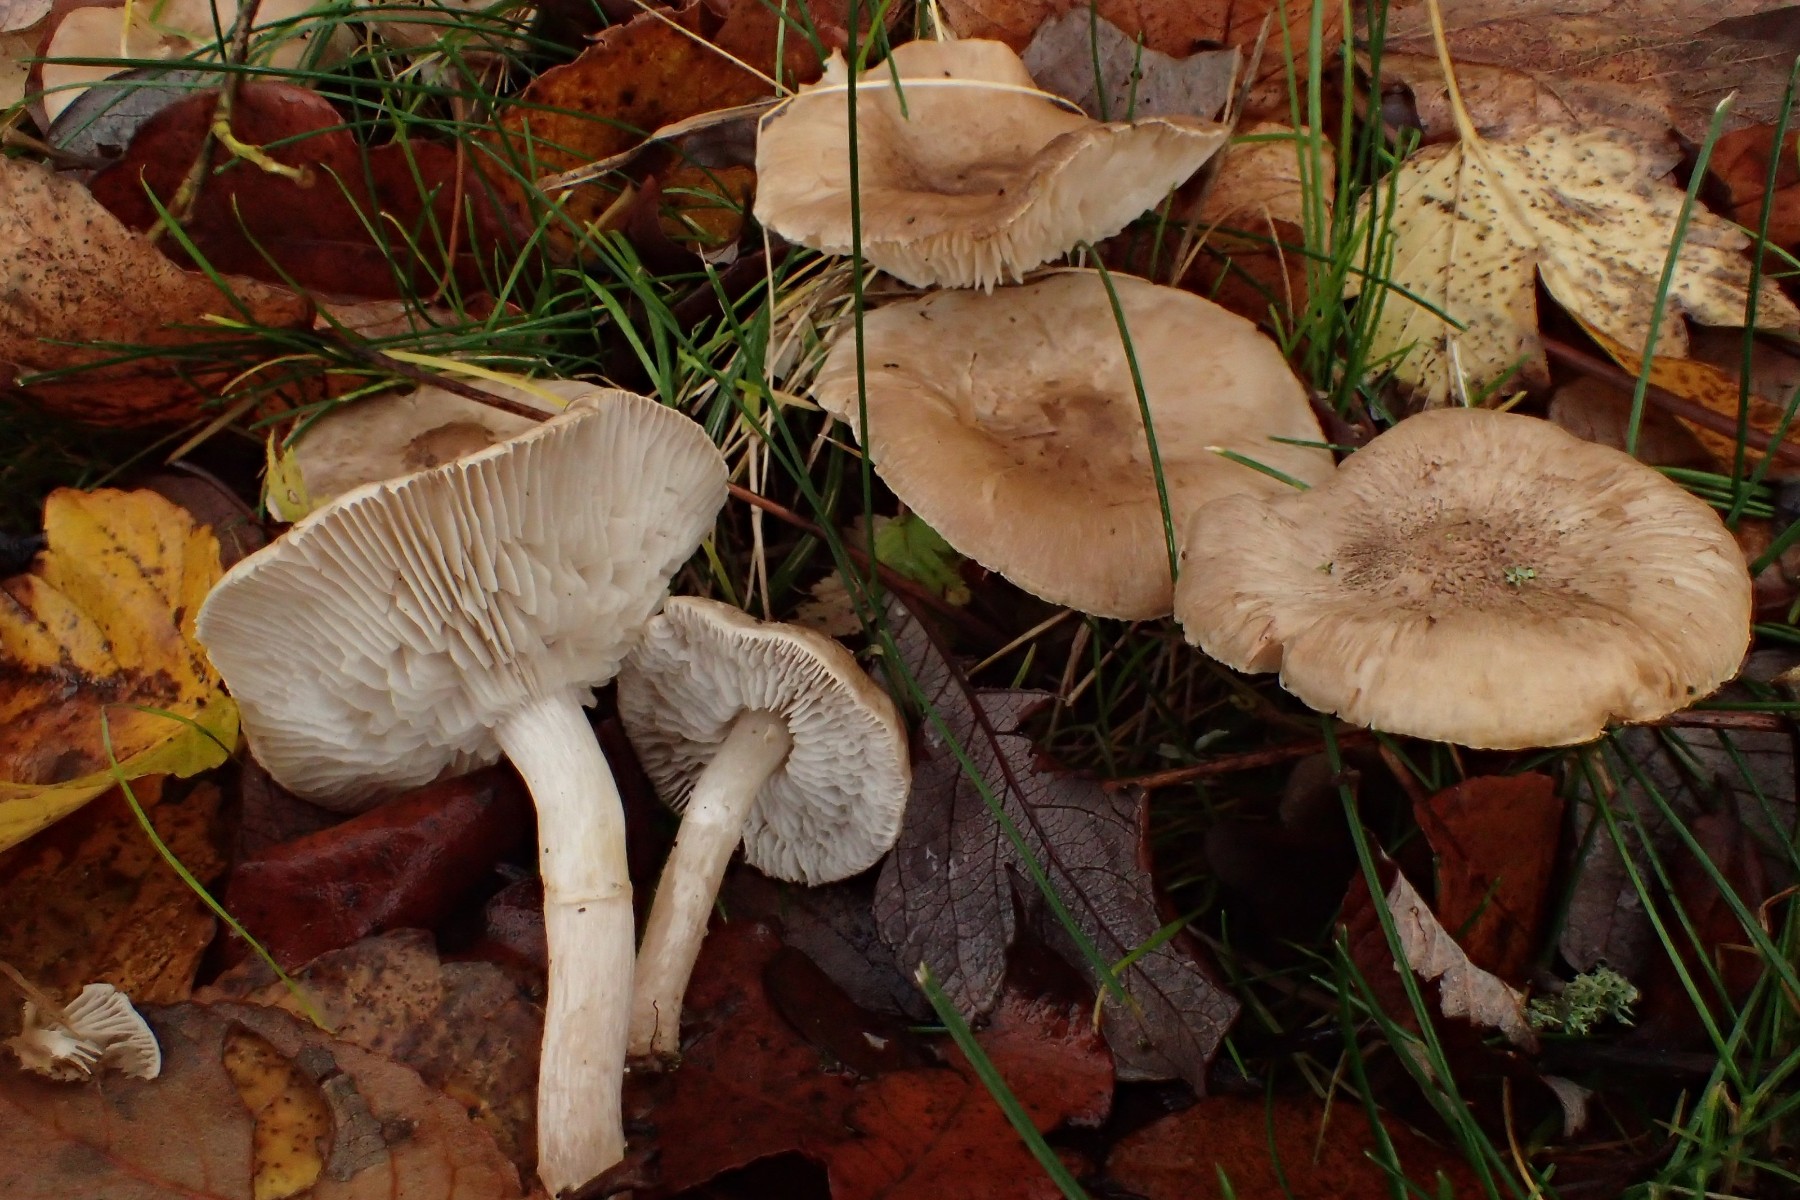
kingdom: Fungi
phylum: Basidiomycota
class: Agaricomycetes
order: Agaricales
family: Tricholomataceae
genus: Tricholoma
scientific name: Tricholoma cingulatum
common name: ring-ridderhat
